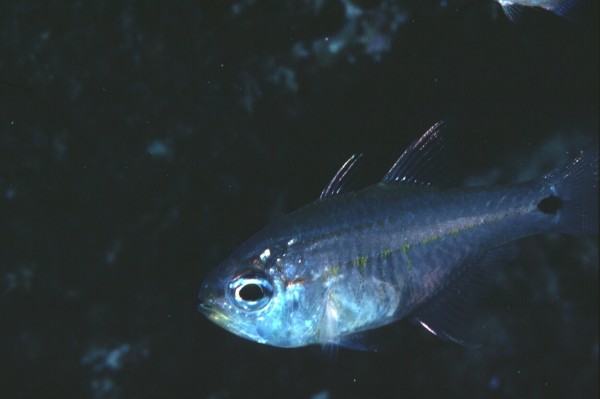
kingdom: Animalia
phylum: Chordata
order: Perciformes
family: Apogonidae
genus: Taeniamia
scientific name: Taeniamia mozambiquensis
